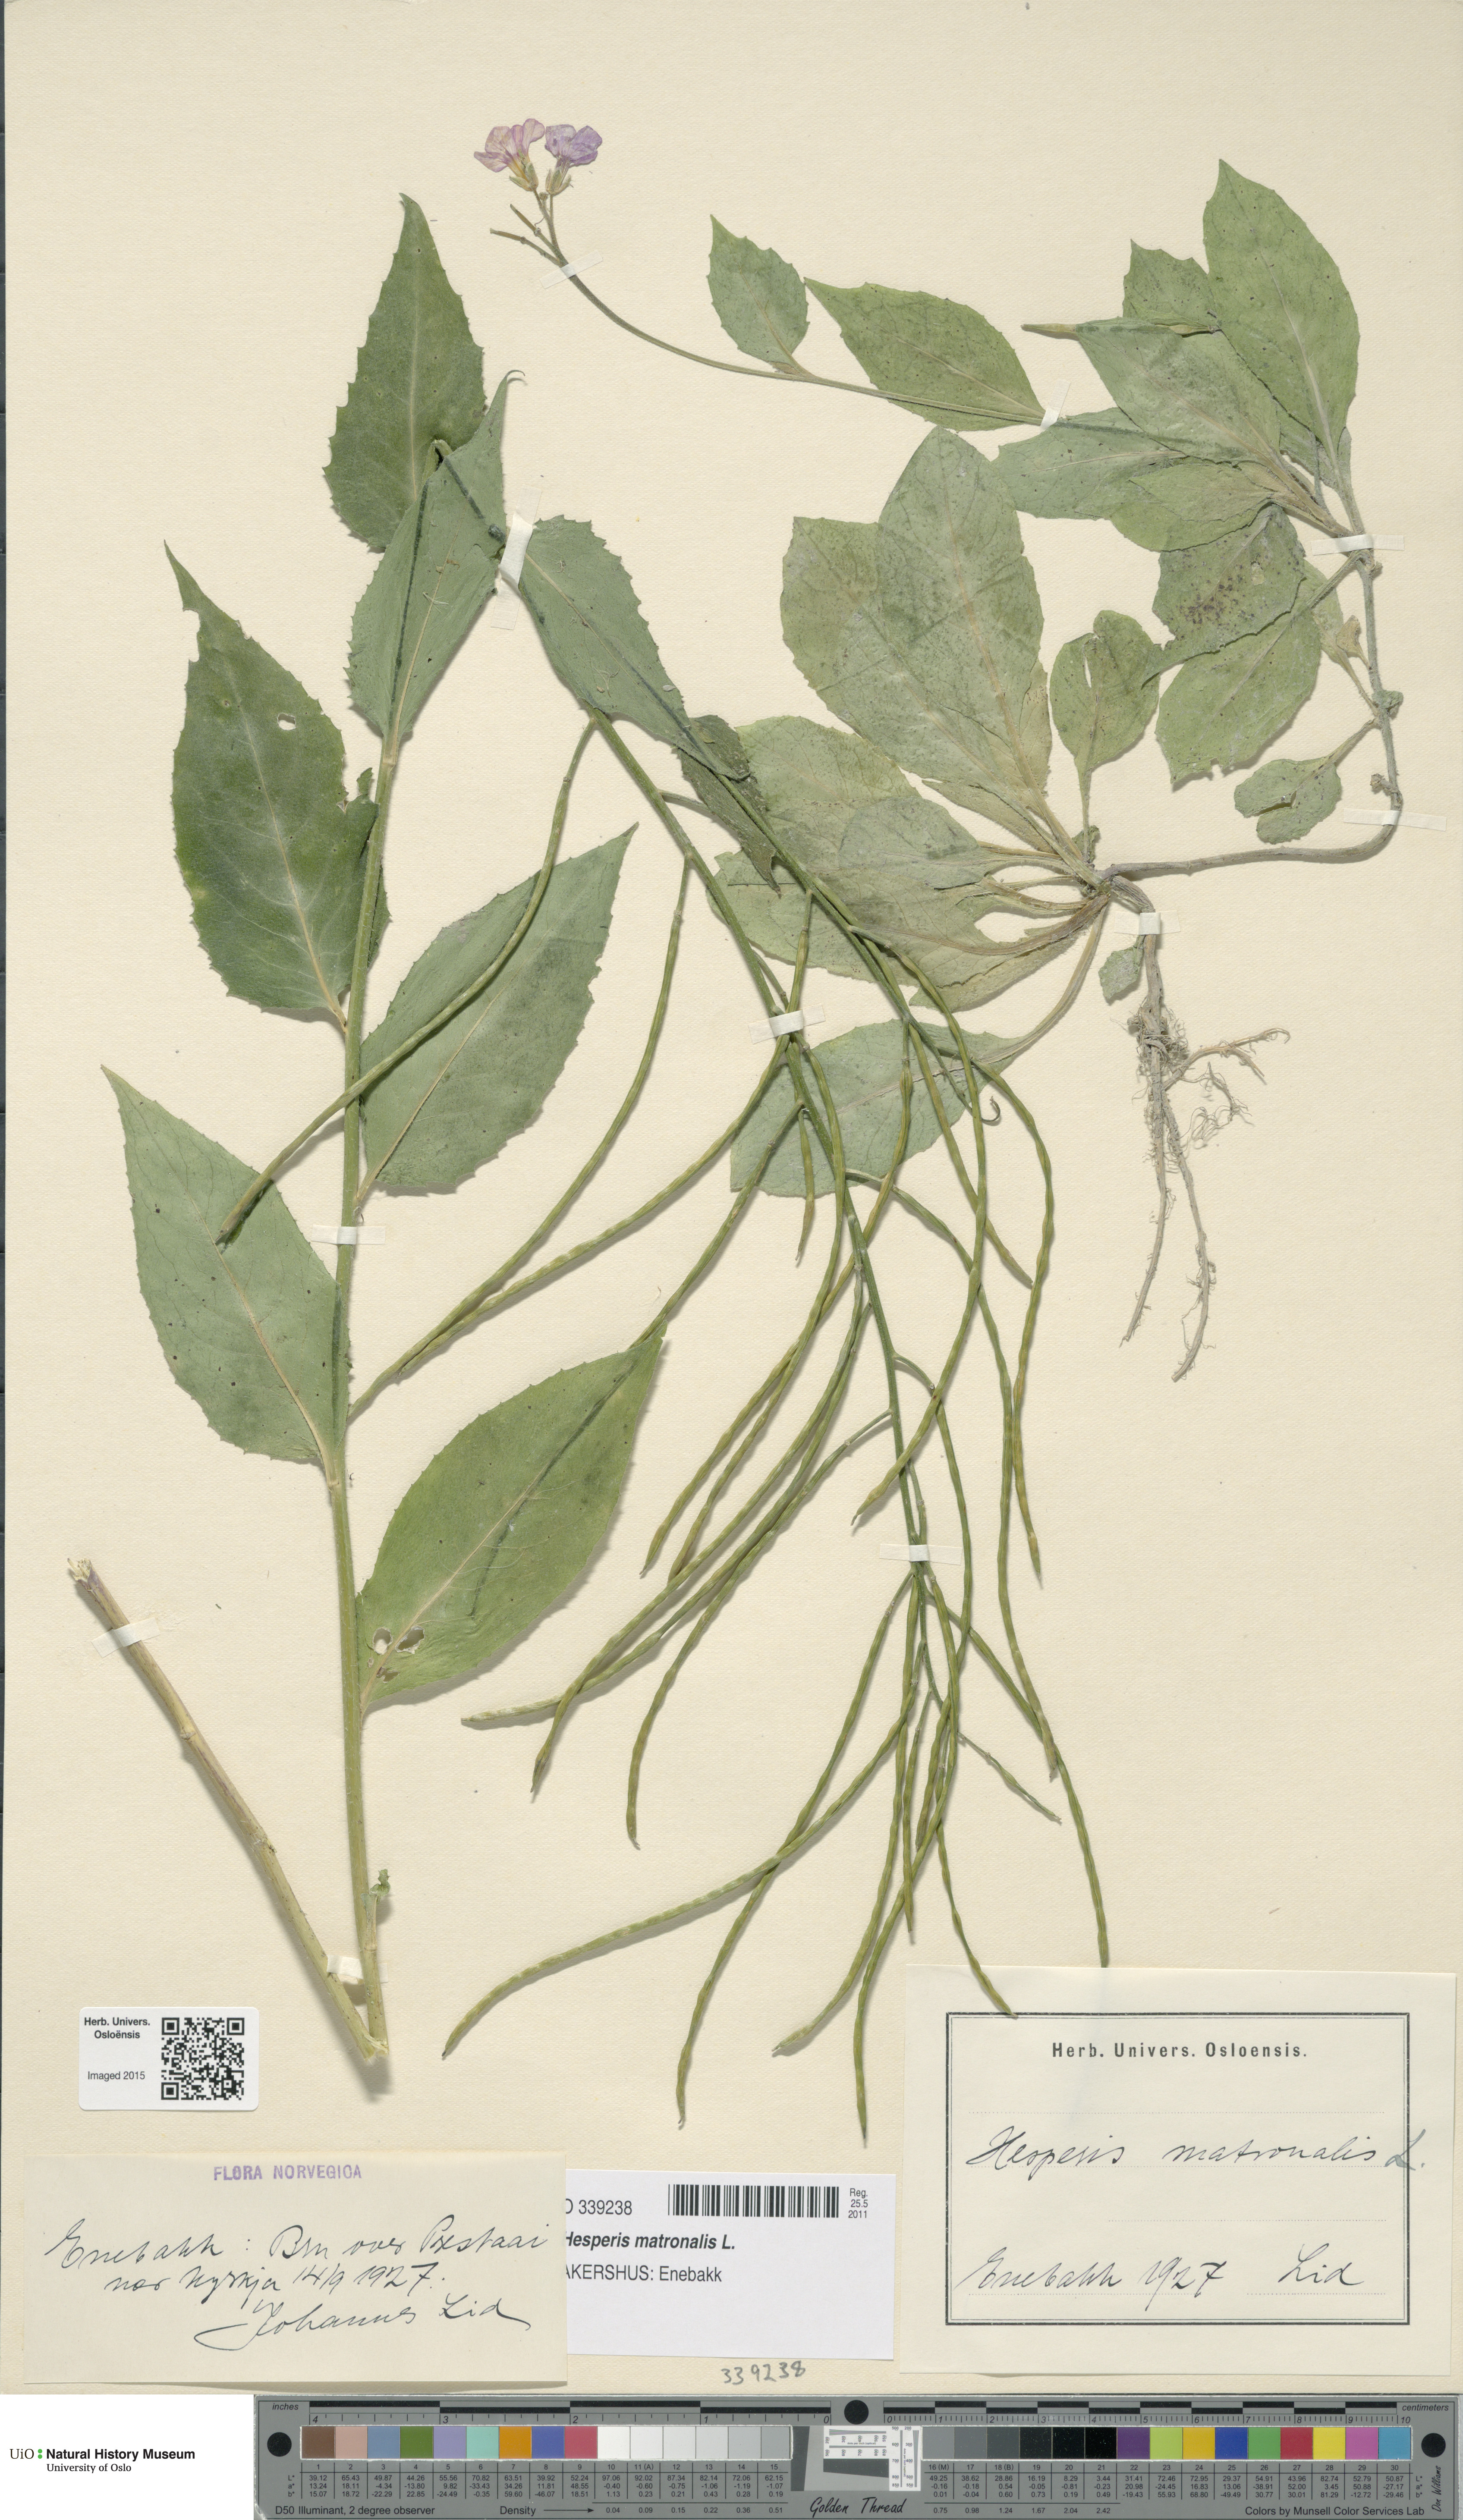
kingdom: Plantae
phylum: Tracheophyta
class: Magnoliopsida
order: Brassicales
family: Brassicaceae
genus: Hesperis
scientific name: Hesperis matronalis
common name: Dame's-violet
